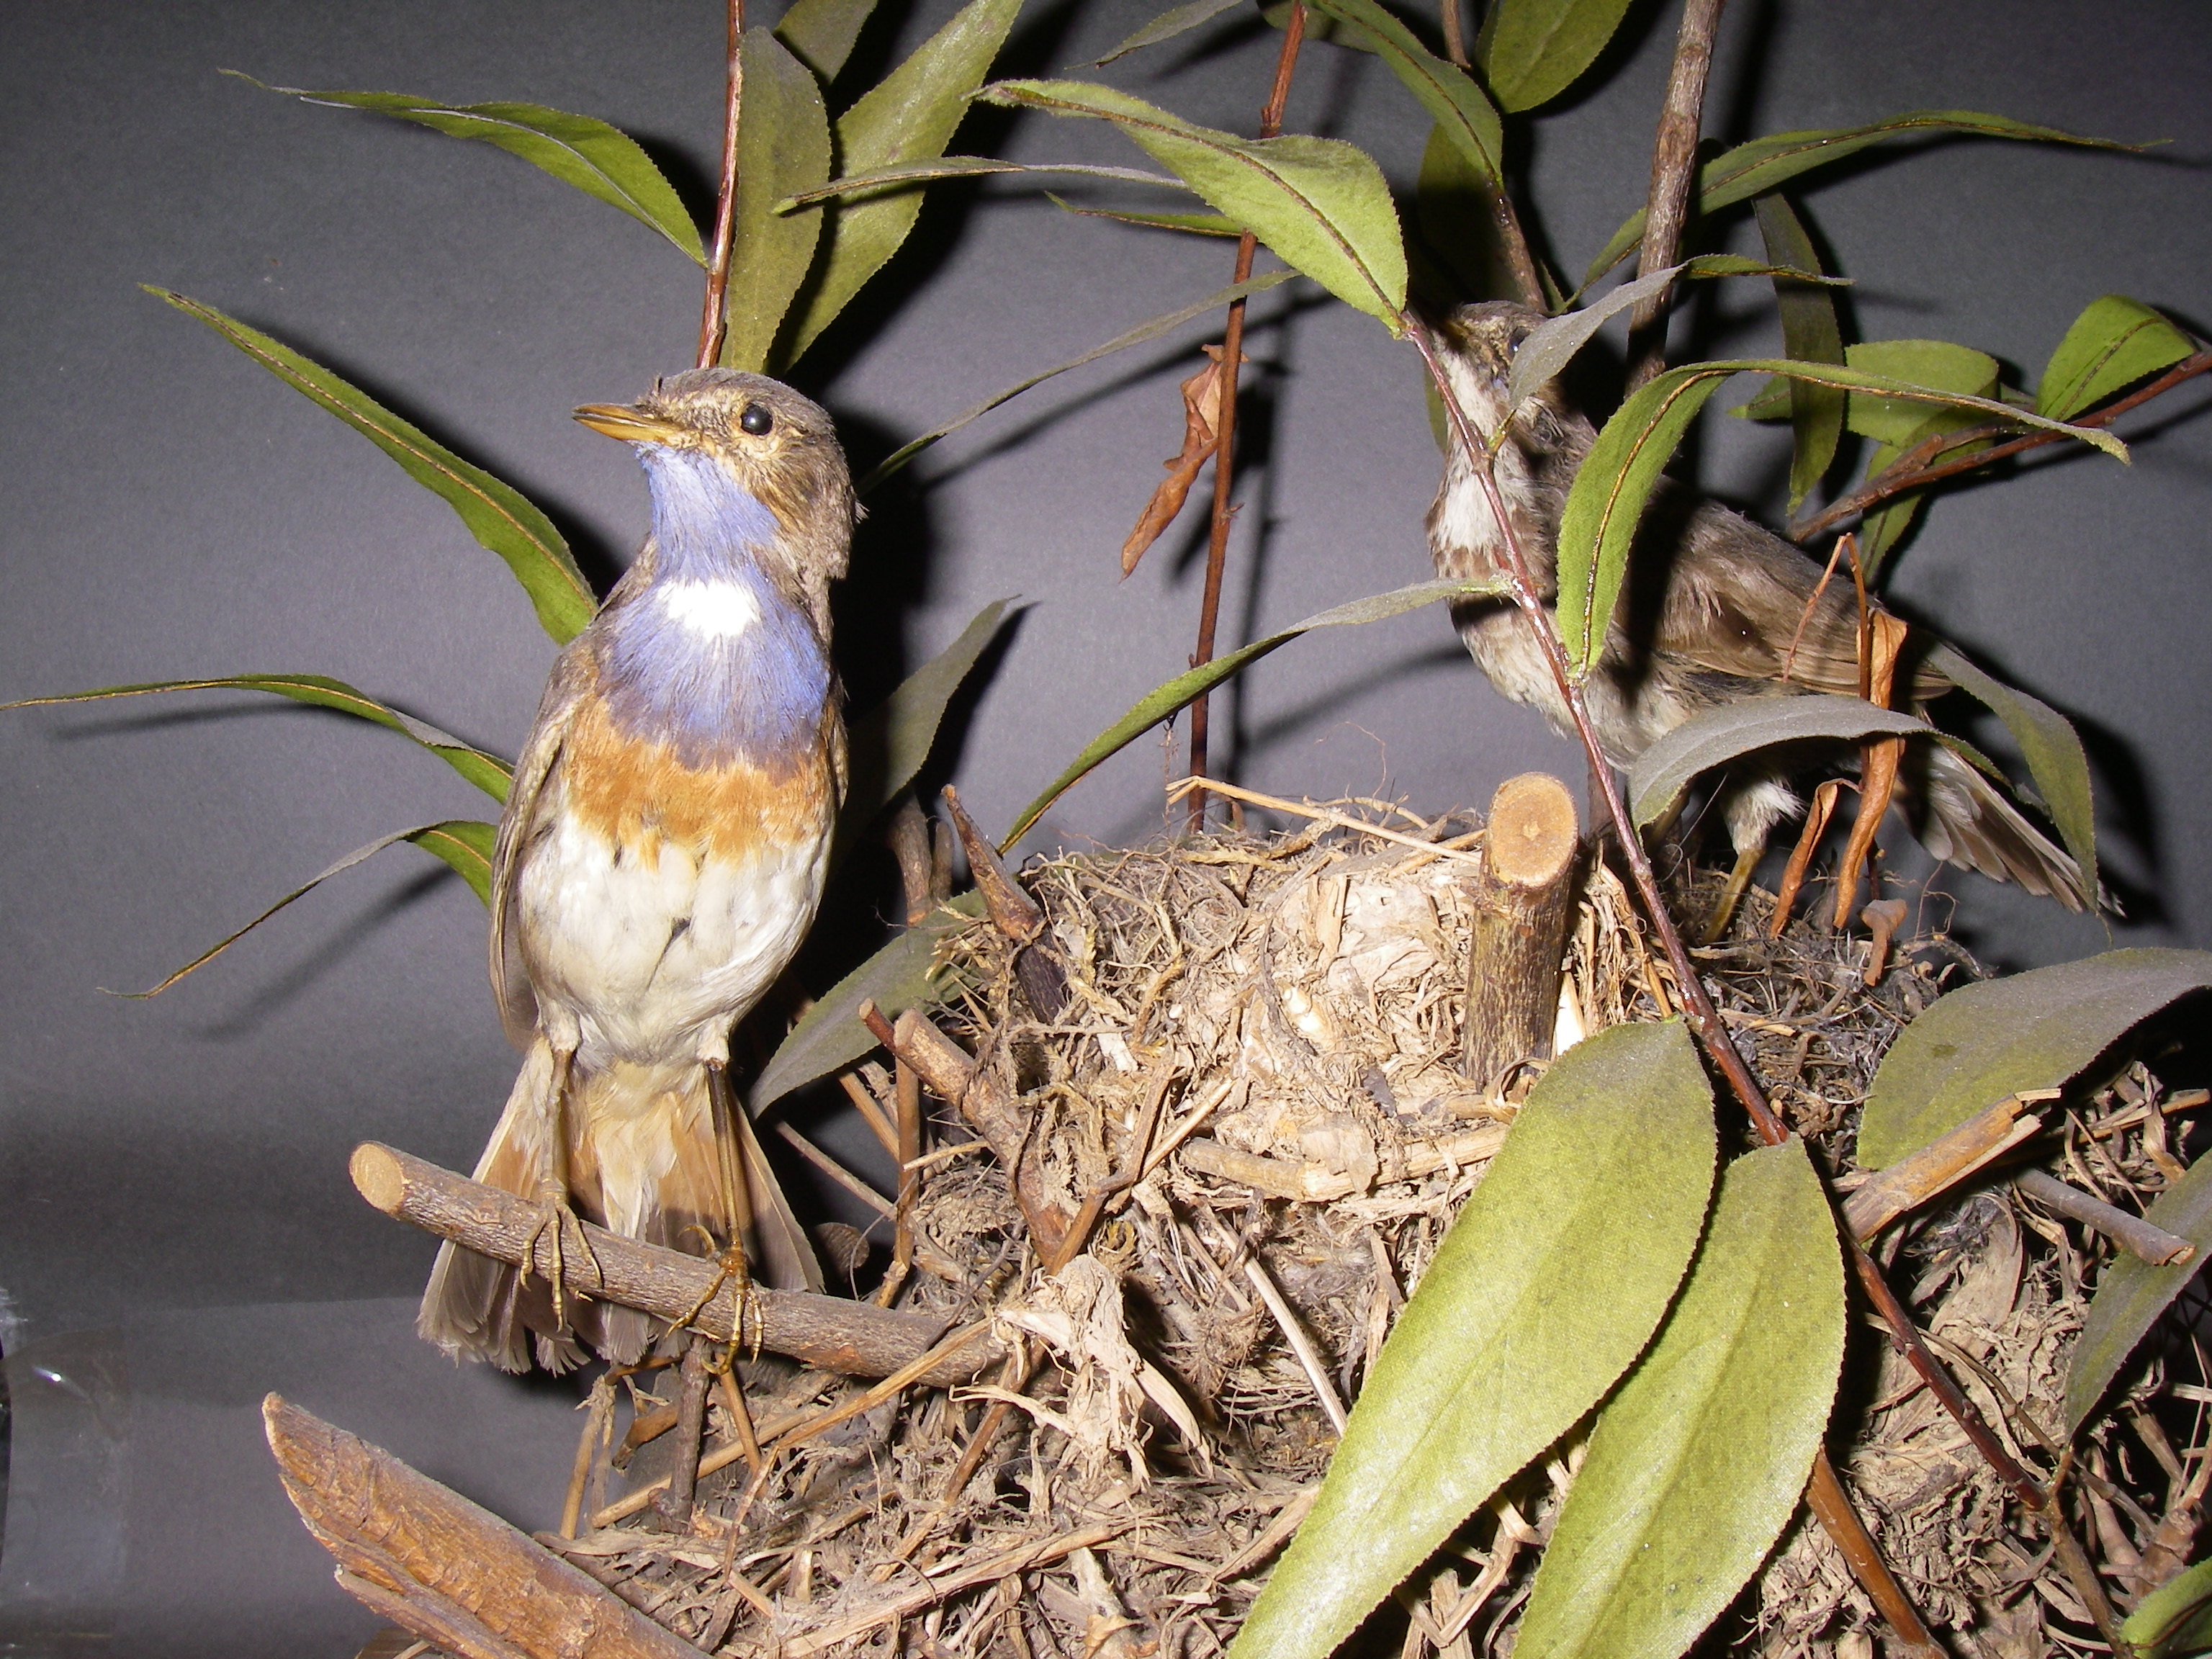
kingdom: Animalia
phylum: Chordata
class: Aves
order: Passeriformes
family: Muscicapidae
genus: Luscinia
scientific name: Luscinia svecica
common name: Bluethroat
